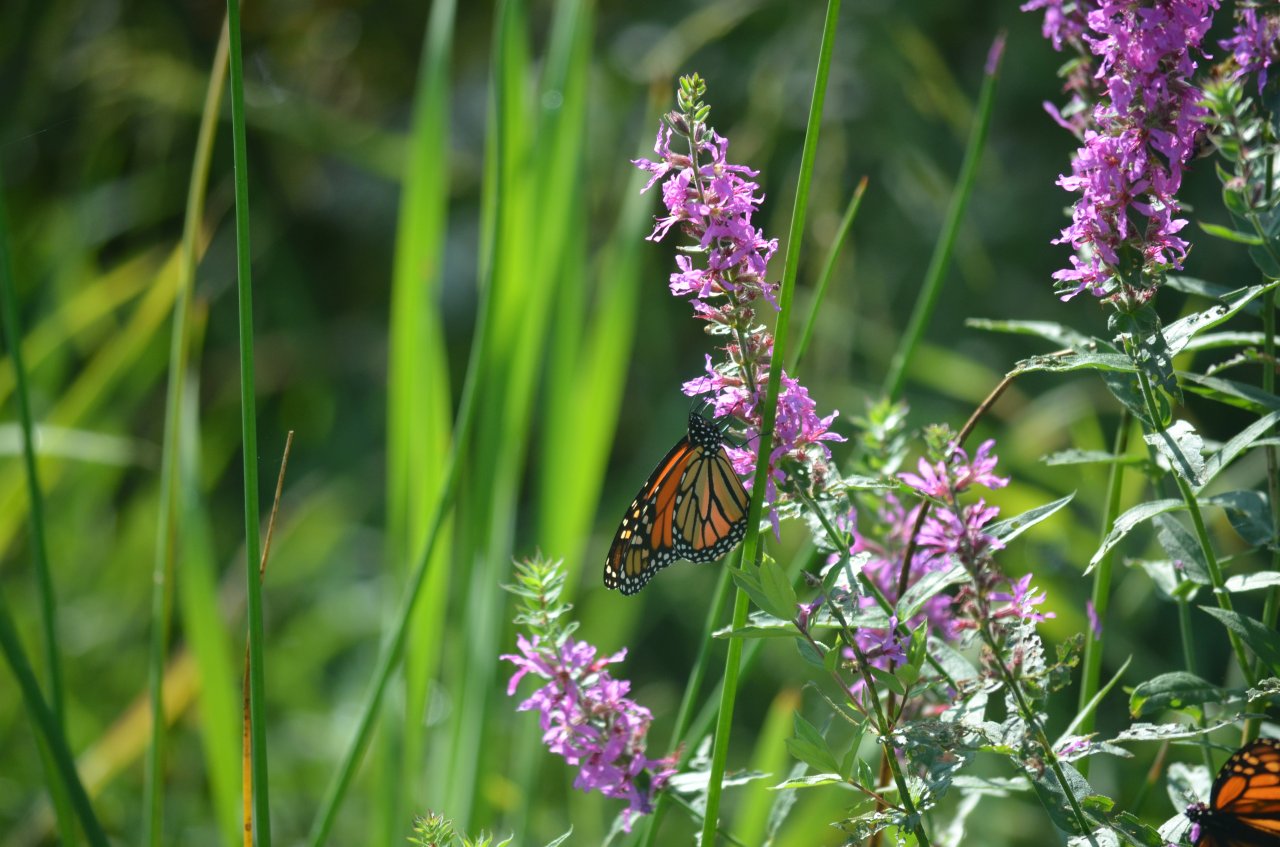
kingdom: Animalia
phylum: Arthropoda
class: Insecta
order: Lepidoptera
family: Nymphalidae
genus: Danaus
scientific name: Danaus plexippus
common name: Monarch
